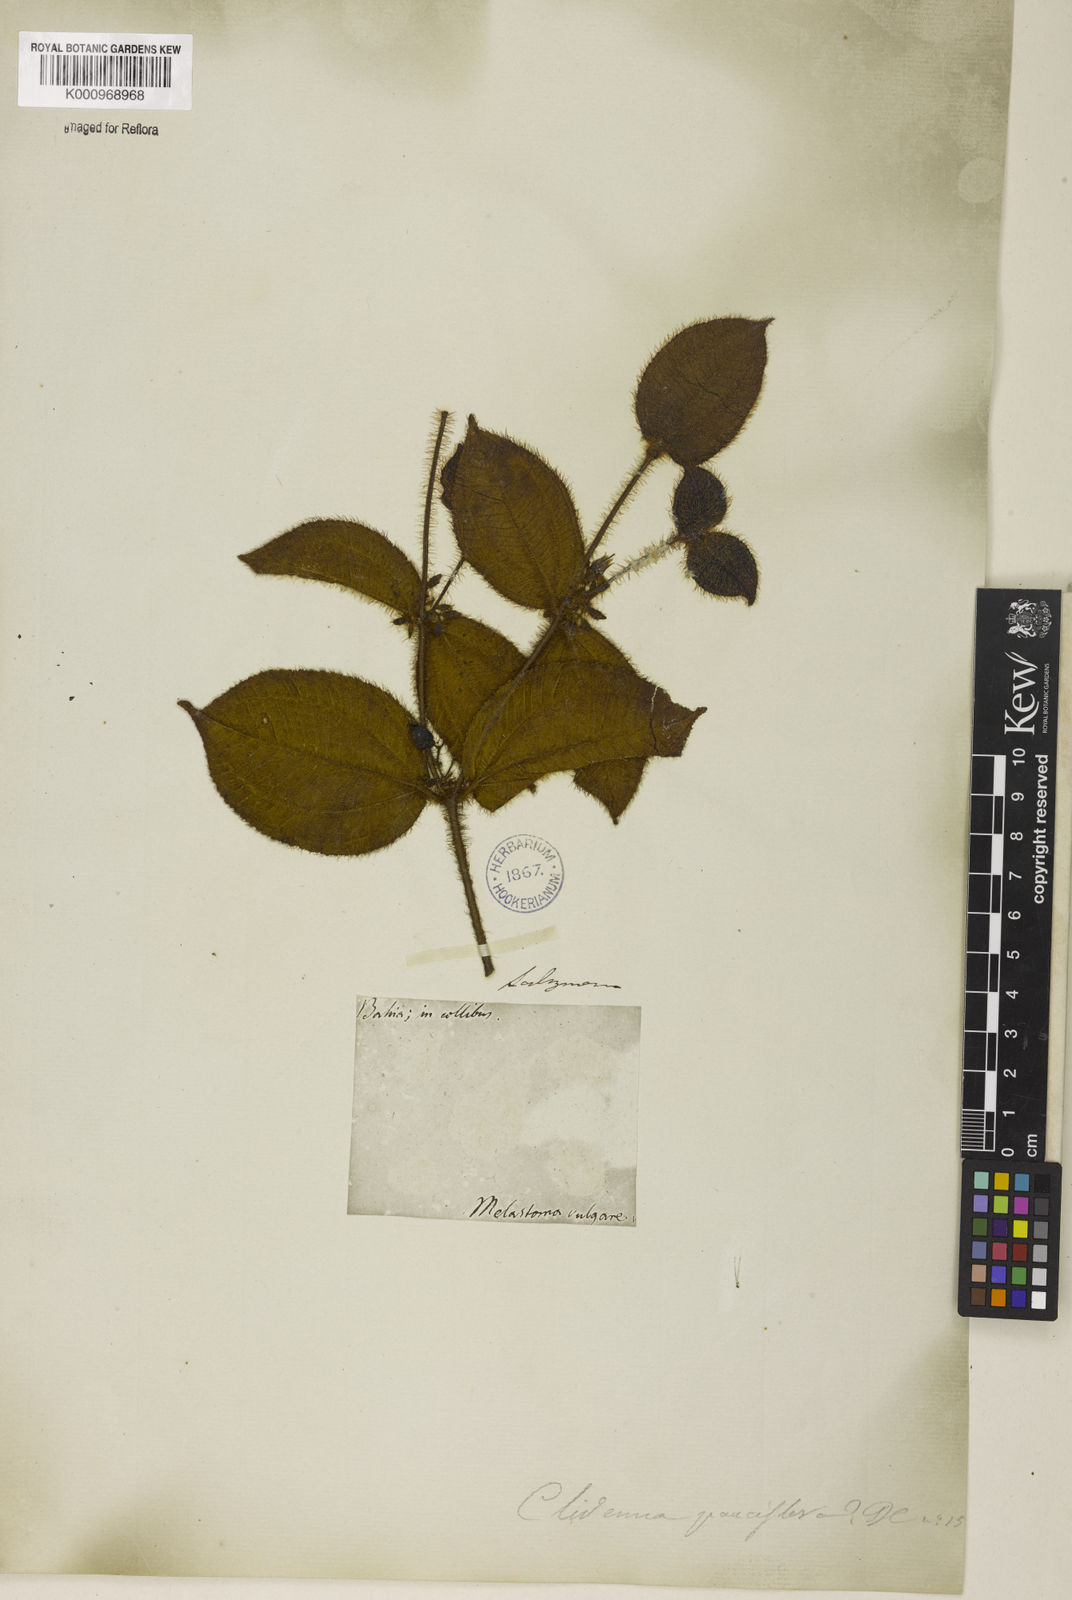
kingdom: Plantae
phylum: Tracheophyta
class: Magnoliopsida
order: Myrtales
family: Melastomataceae
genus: Miconia
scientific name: Miconia crenata
